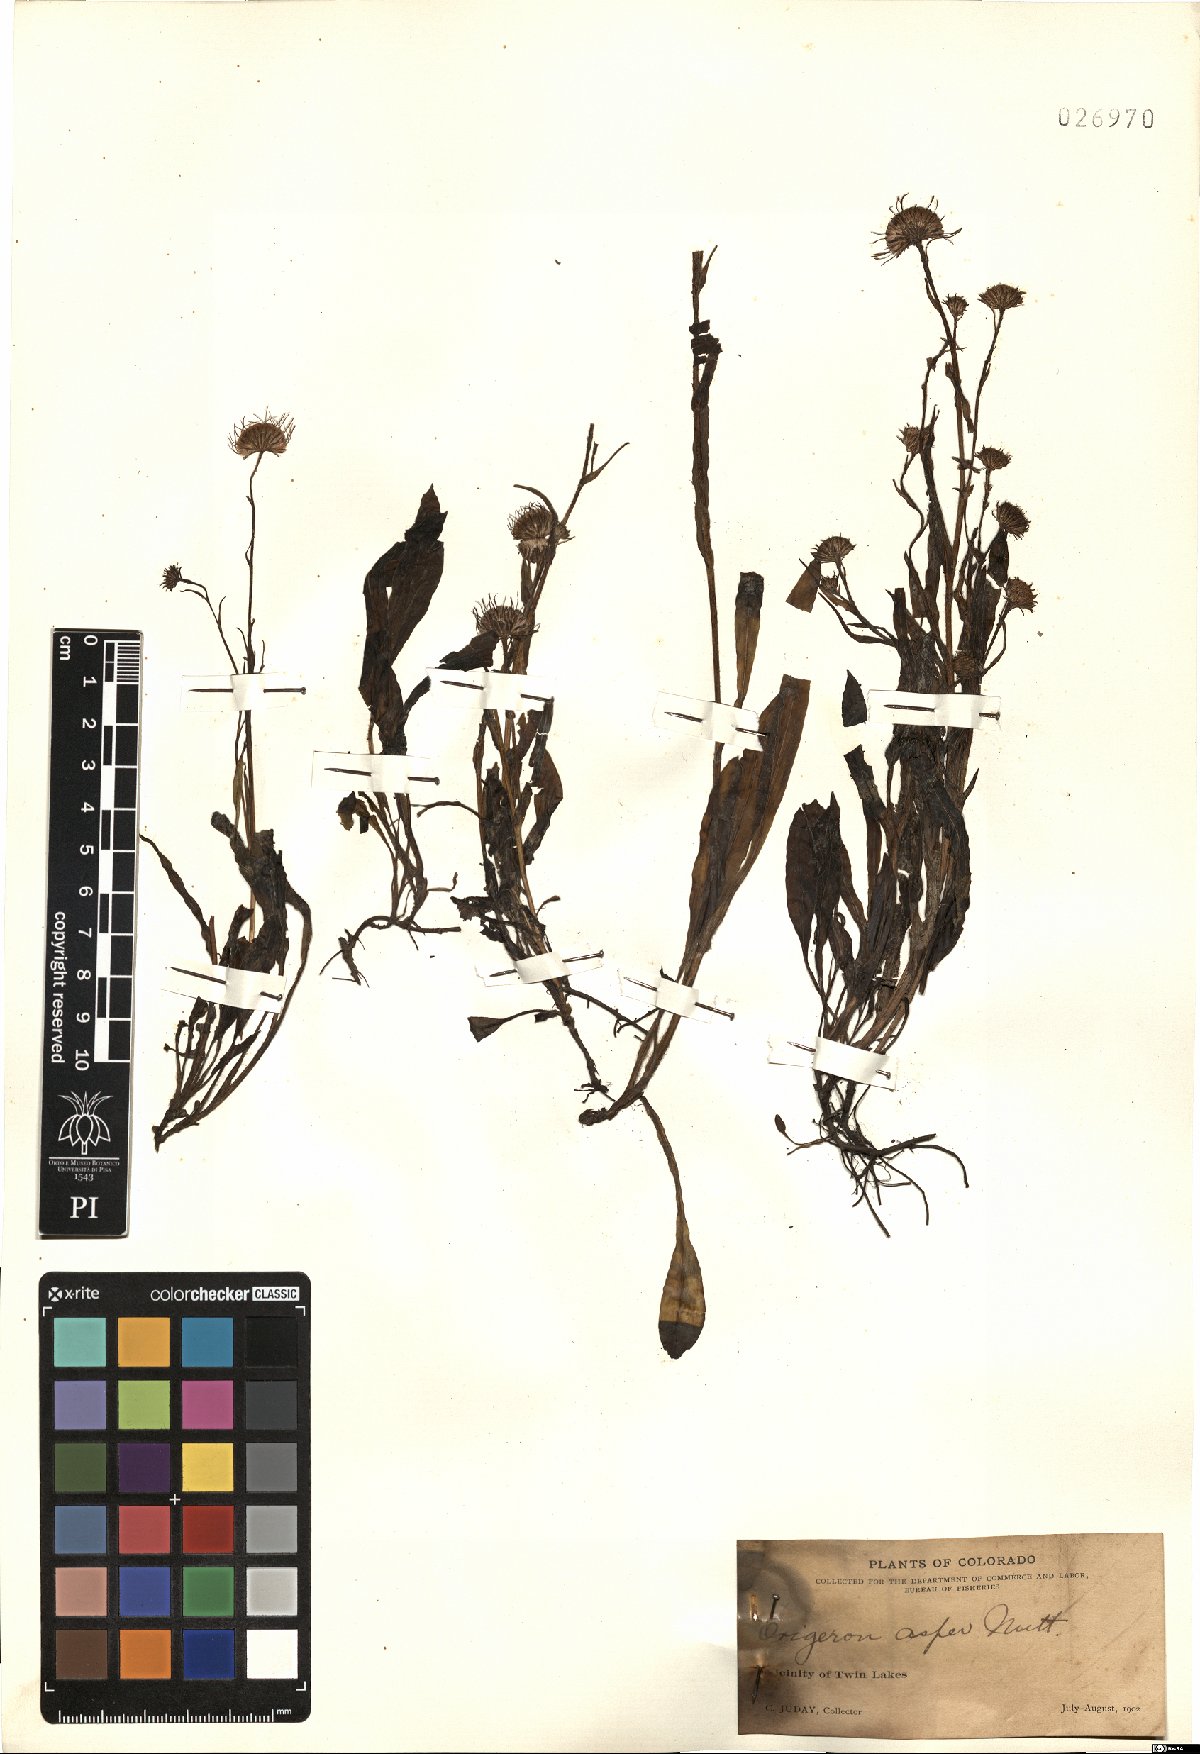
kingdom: Plantae
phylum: Tracheophyta
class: Magnoliopsida
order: Asterales
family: Asteraceae
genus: Erigeron
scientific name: Erigeron glabellus
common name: Smooth fleabane
